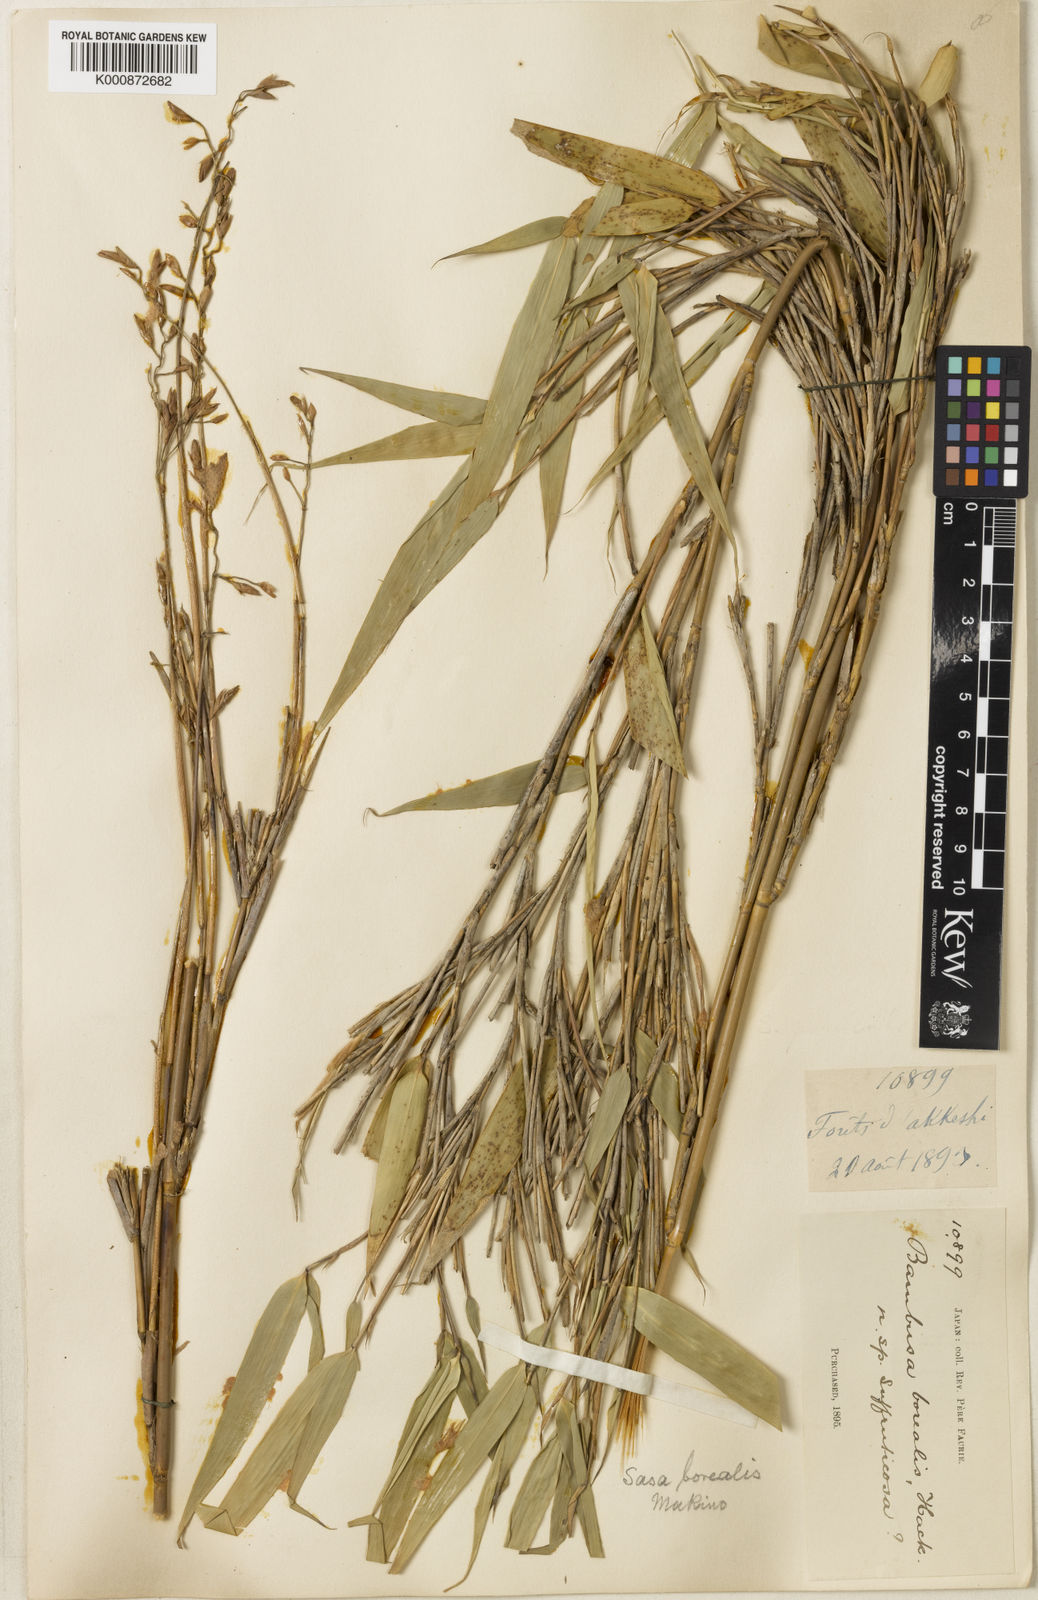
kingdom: Plantae
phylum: Tracheophyta
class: Liliopsida
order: Poales
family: Poaceae
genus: Sasamorpha
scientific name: Sasamorpha borealis
